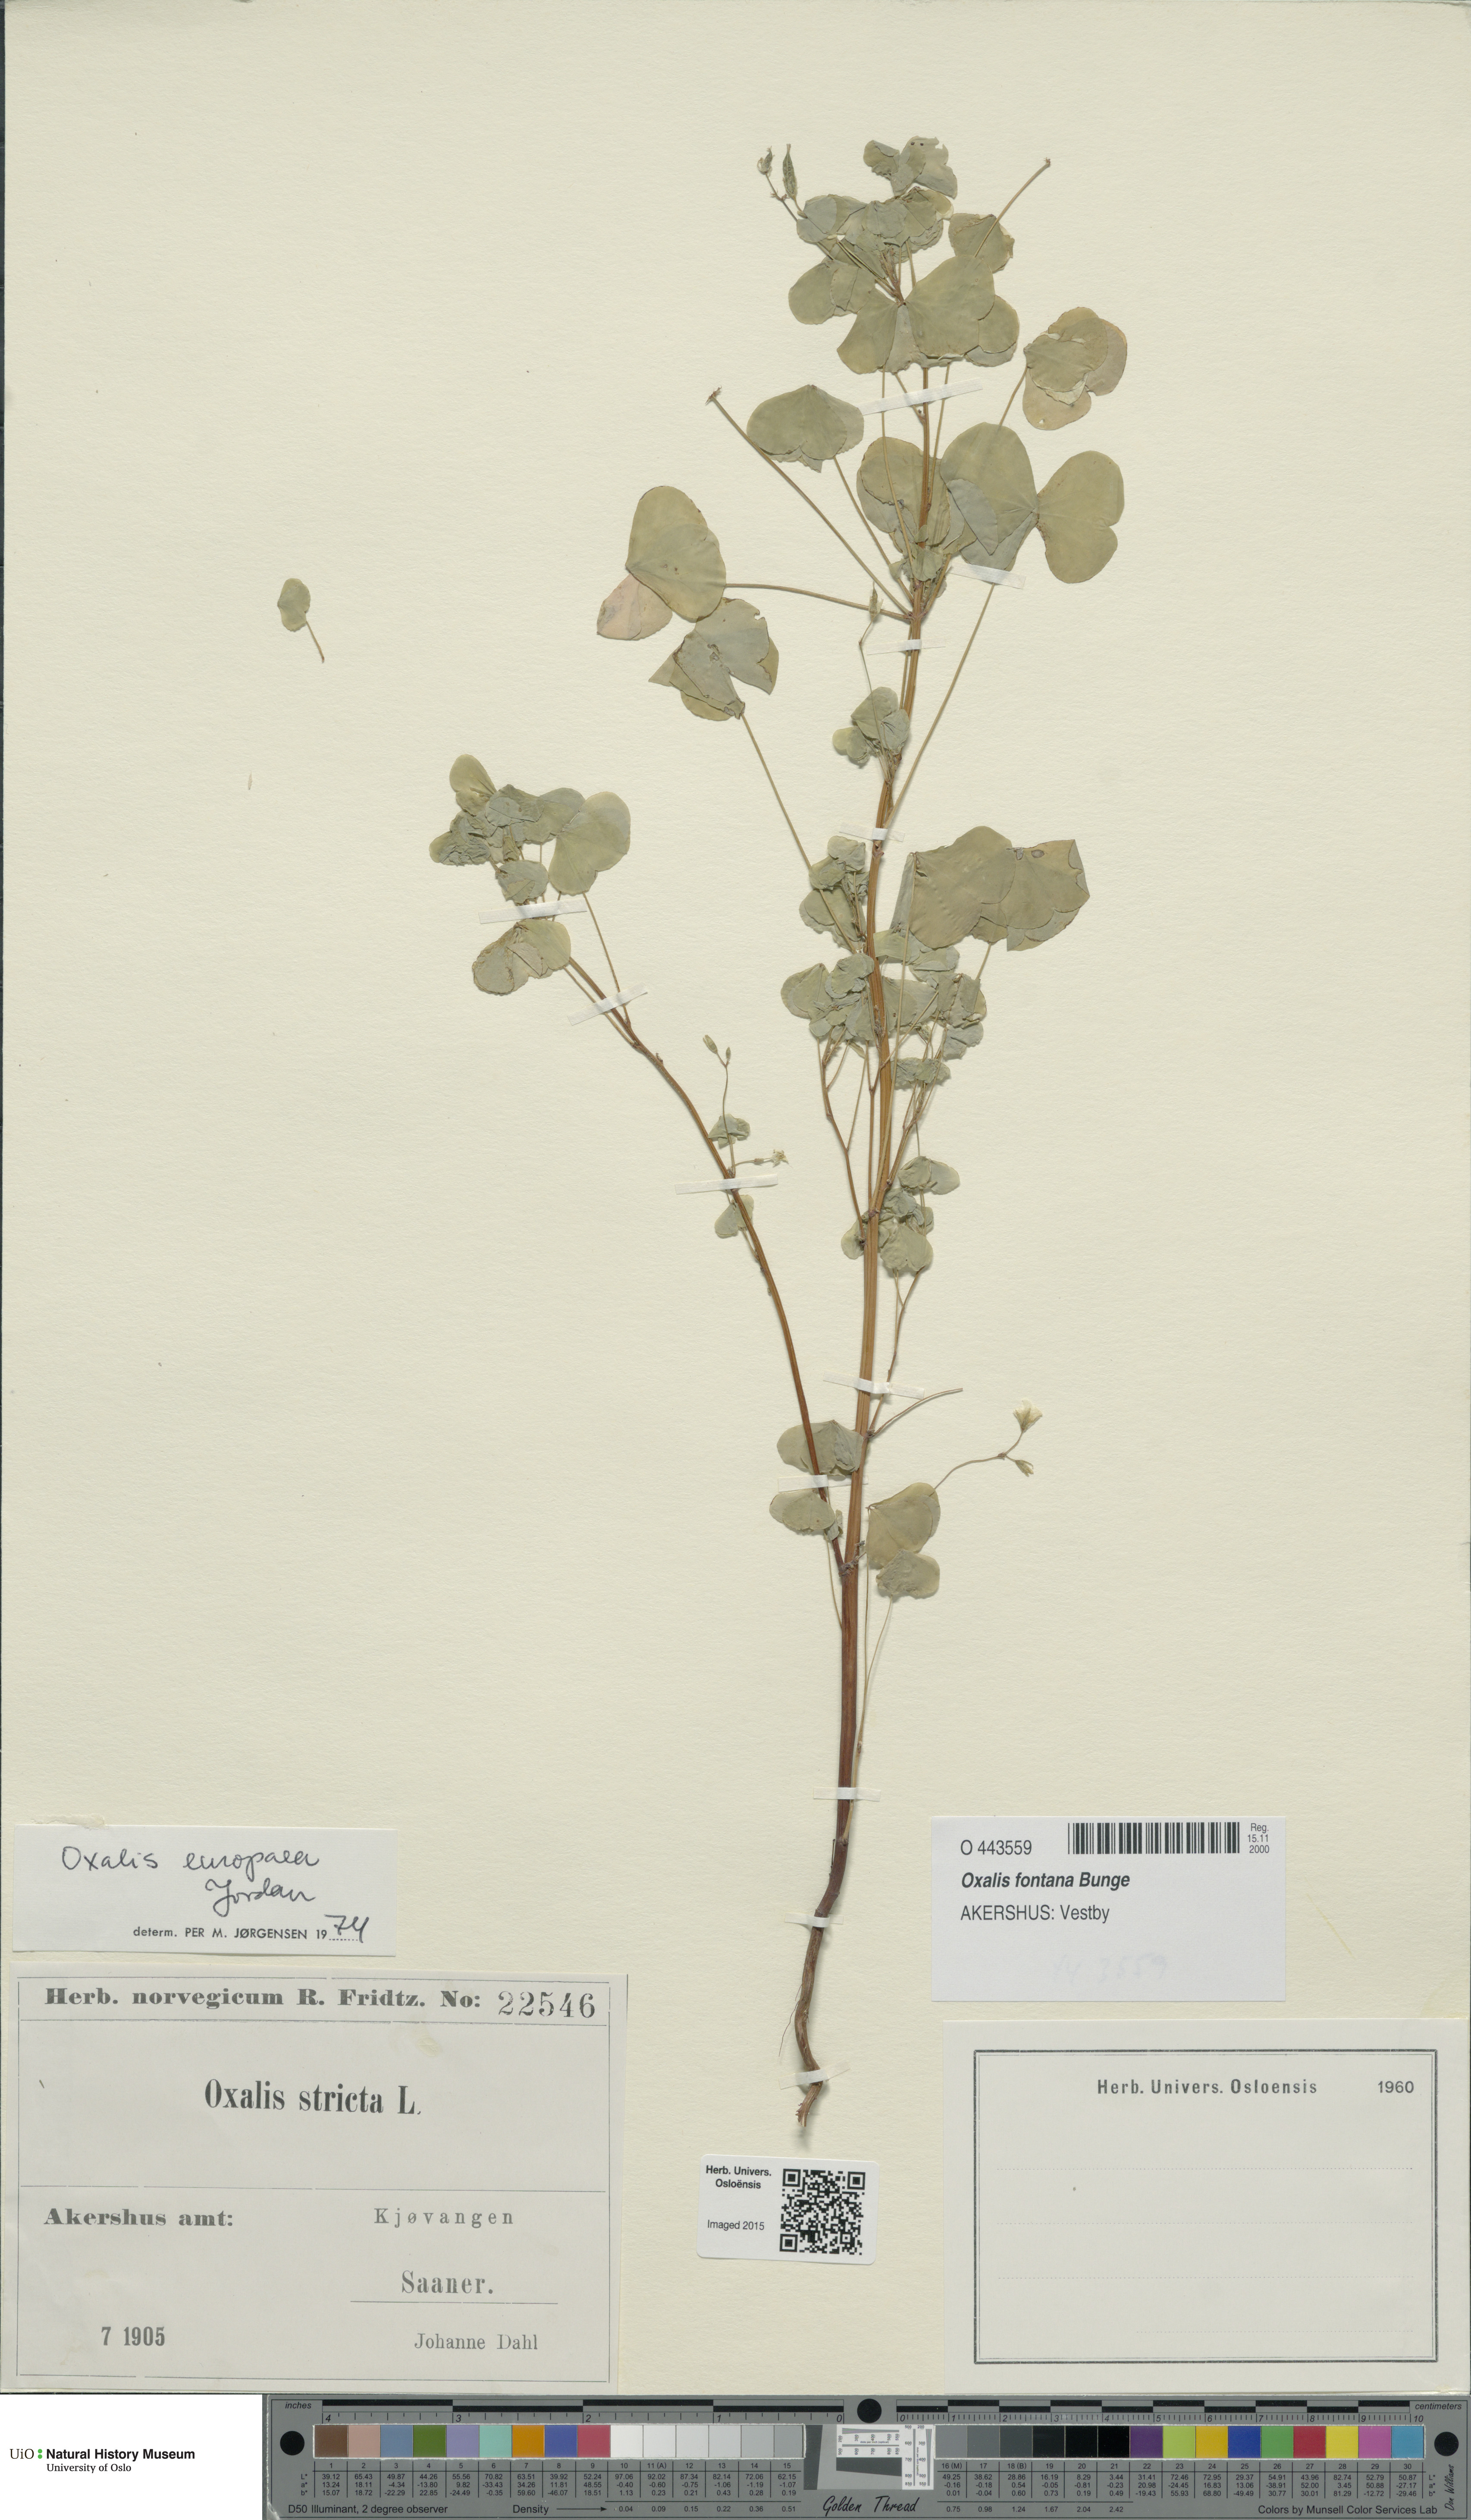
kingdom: Plantae
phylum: Tracheophyta
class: Magnoliopsida
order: Oxalidales
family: Oxalidaceae
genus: Oxalis
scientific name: Oxalis stricta
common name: Upright yellow-sorrel
